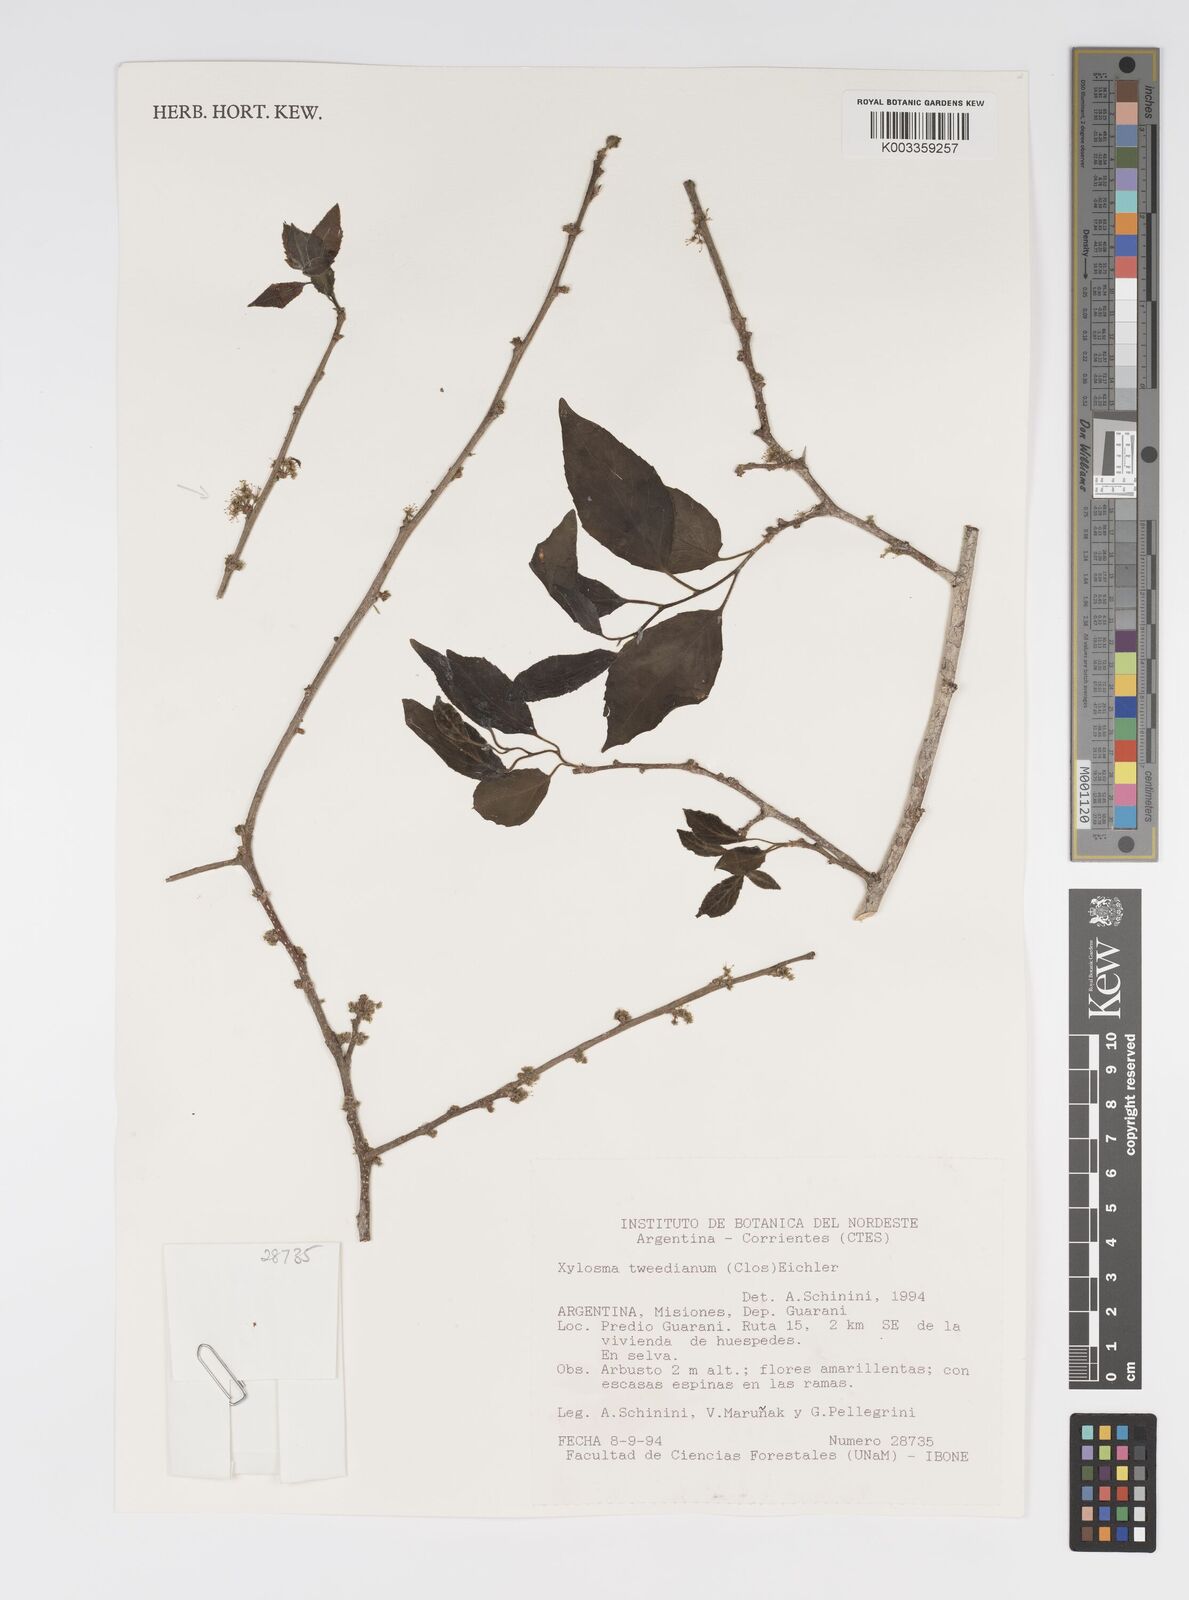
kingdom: Plantae
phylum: Tracheophyta
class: Magnoliopsida
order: Malpighiales
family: Salicaceae
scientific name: Salicaceae
